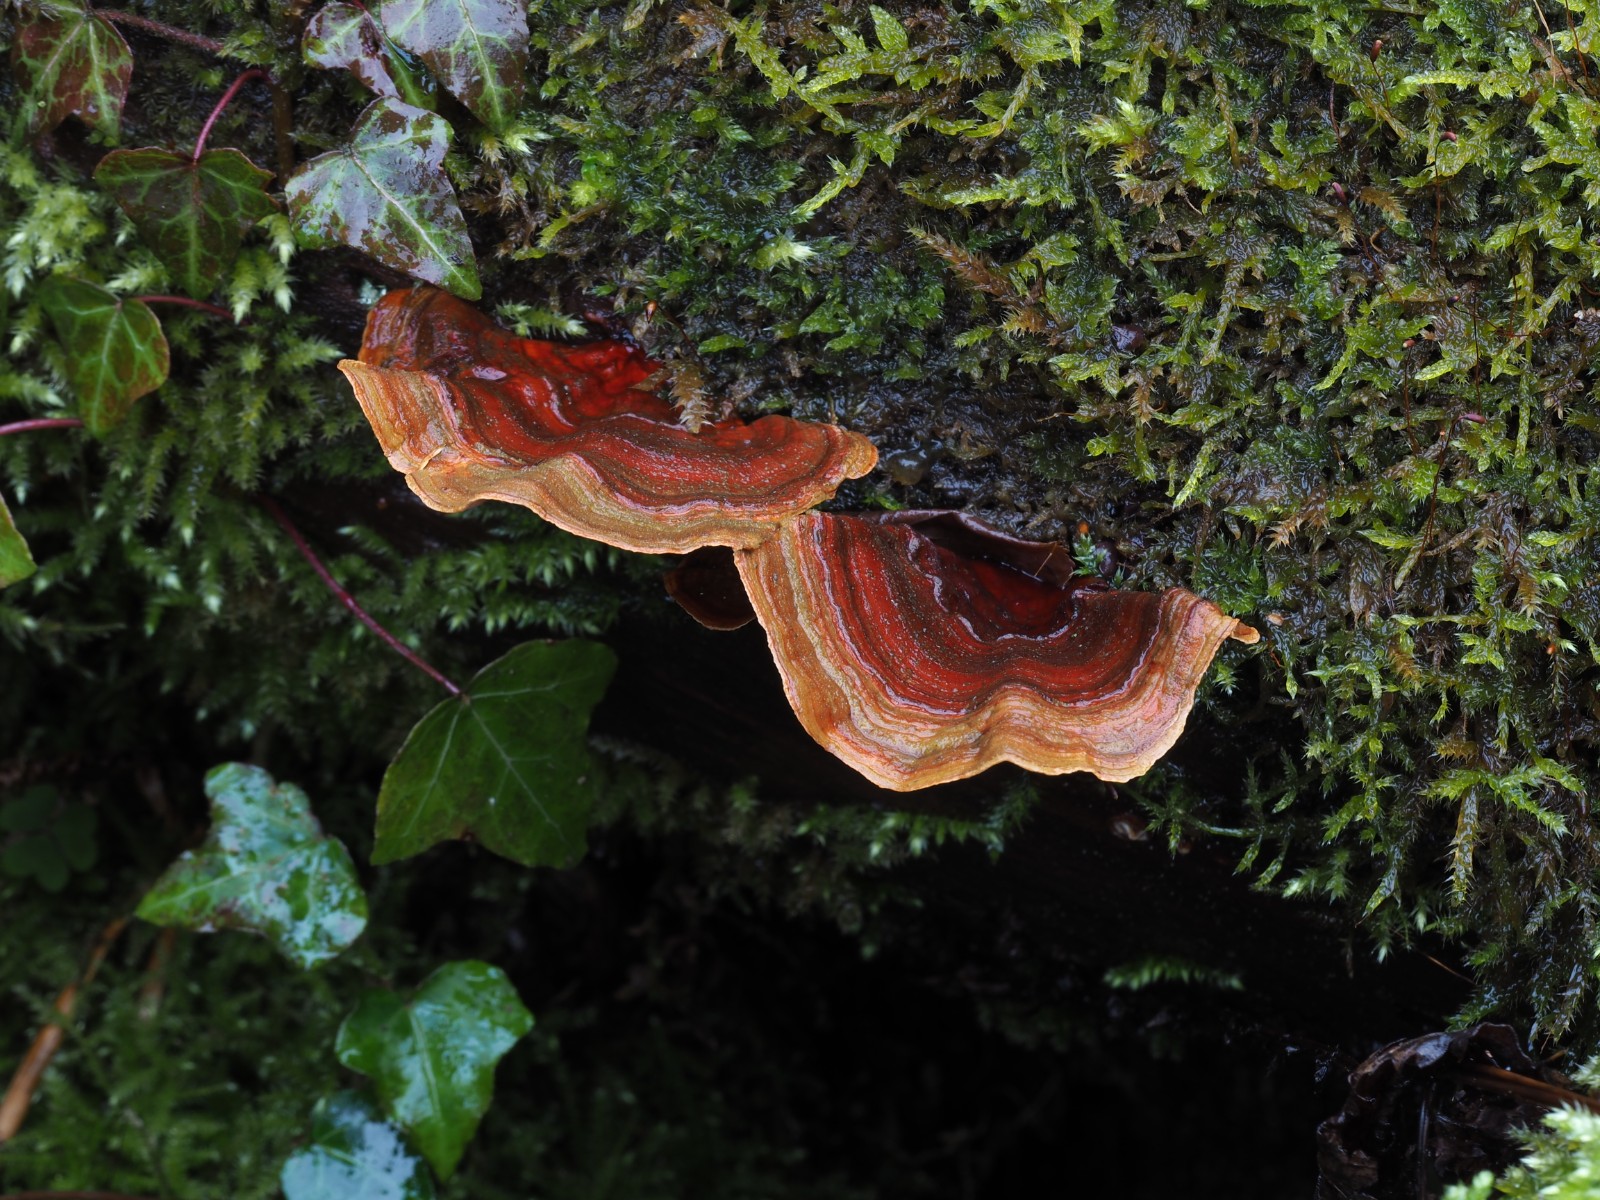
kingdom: Fungi
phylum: Basidiomycota
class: Agaricomycetes
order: Russulales
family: Stereaceae
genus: Stereum
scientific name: Stereum subtomentosum
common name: smuk lædersvamp
